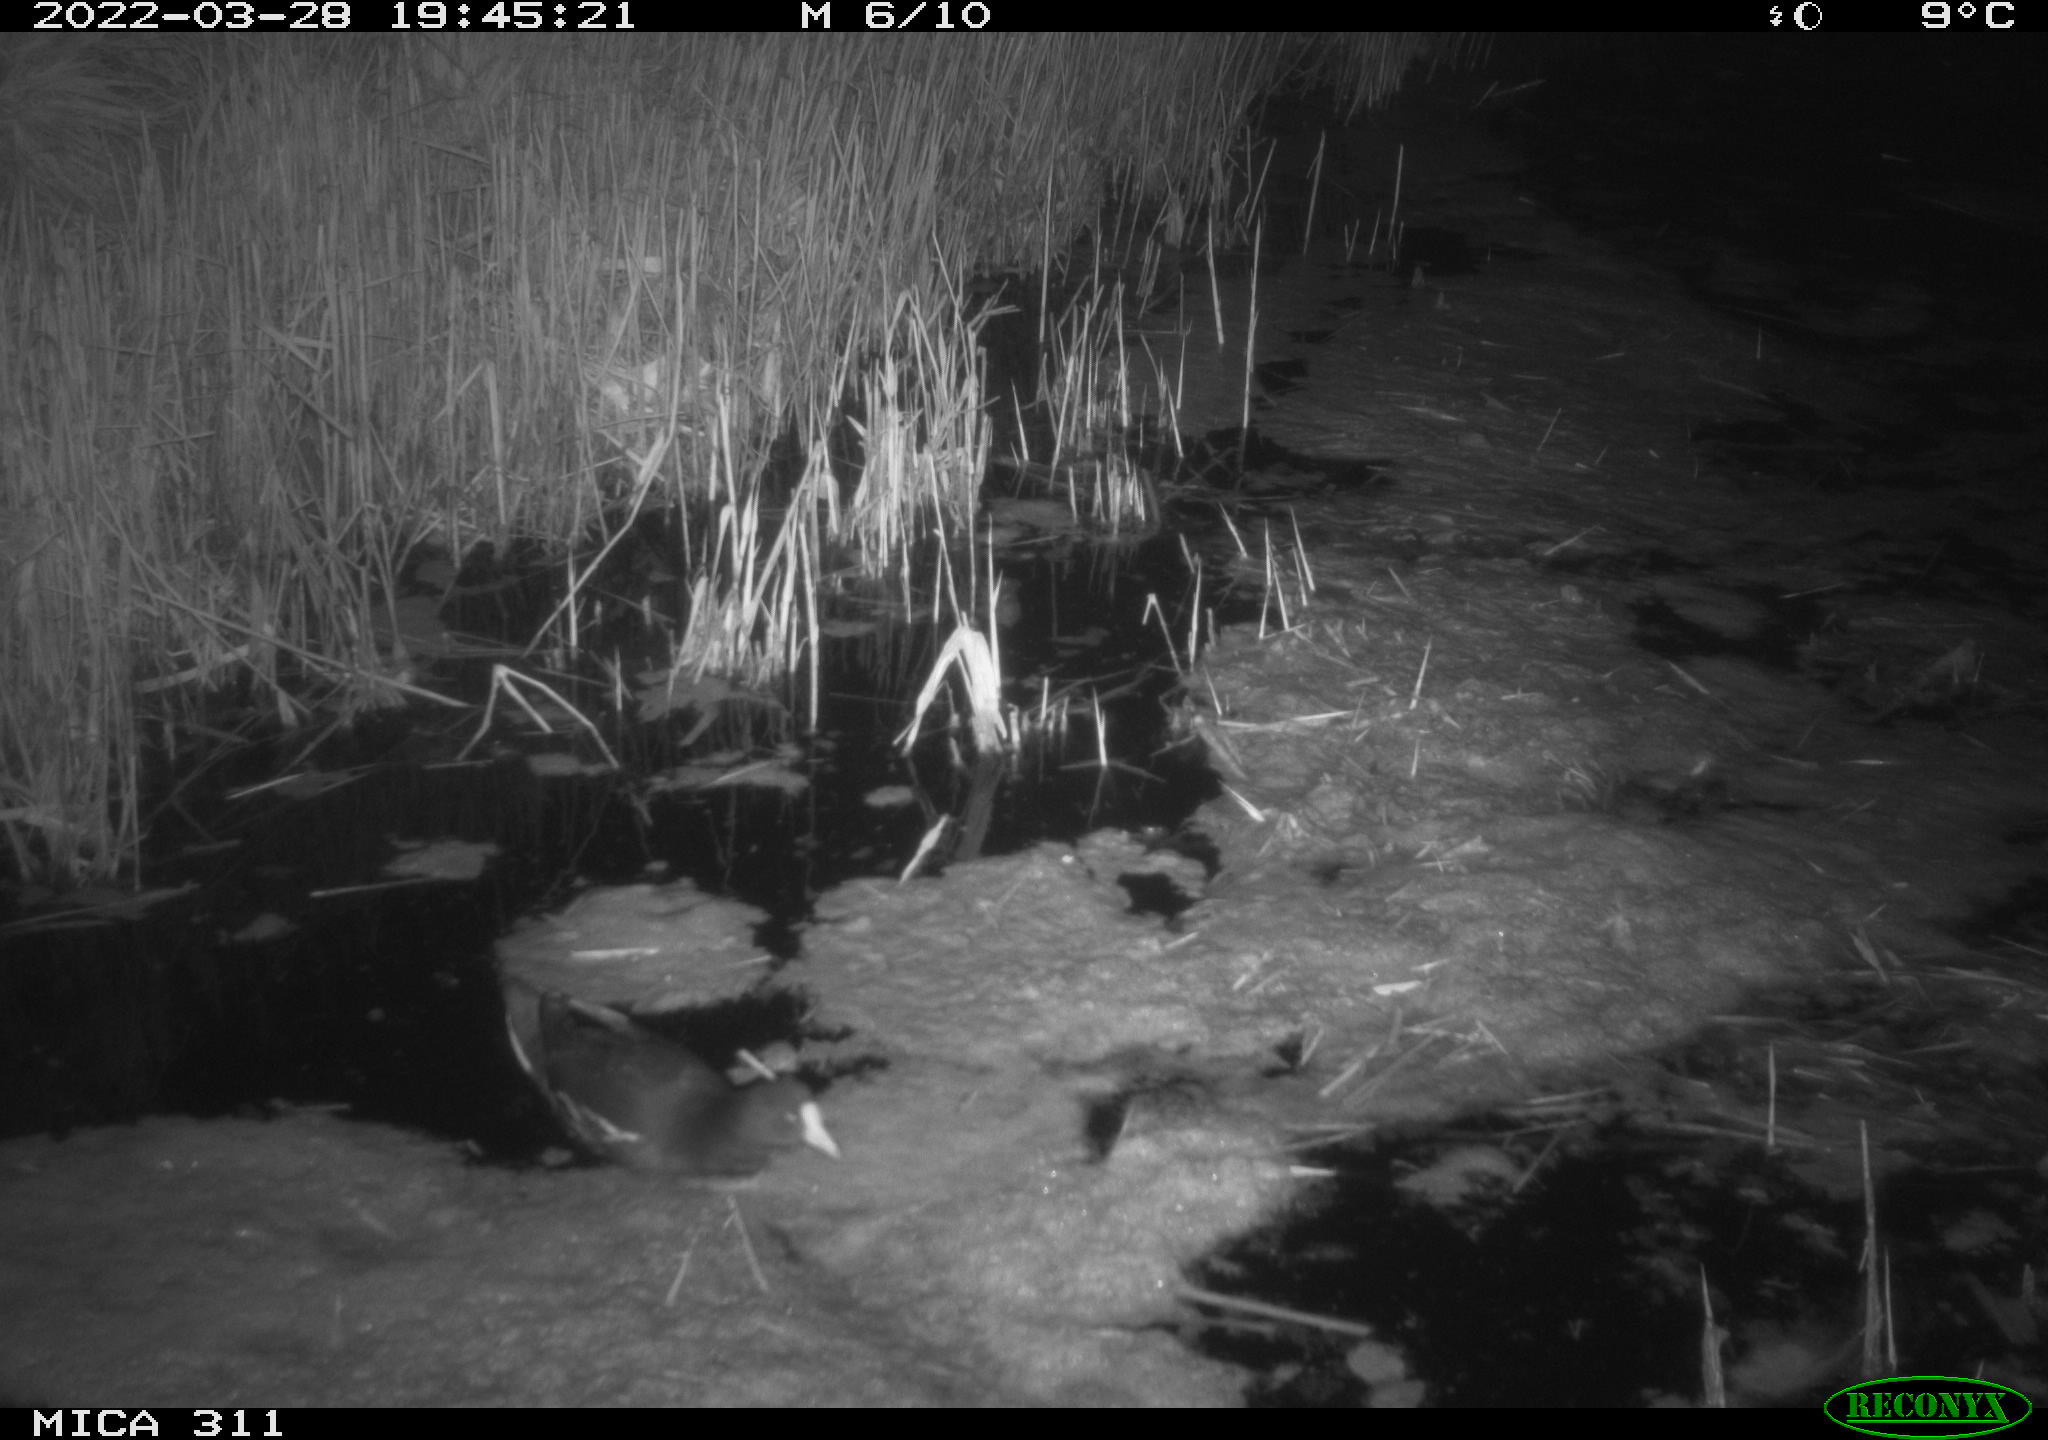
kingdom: Animalia
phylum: Chordata
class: Aves
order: Gruiformes
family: Rallidae
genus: Gallinula
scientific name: Gallinula chloropus
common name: Common moorhen
